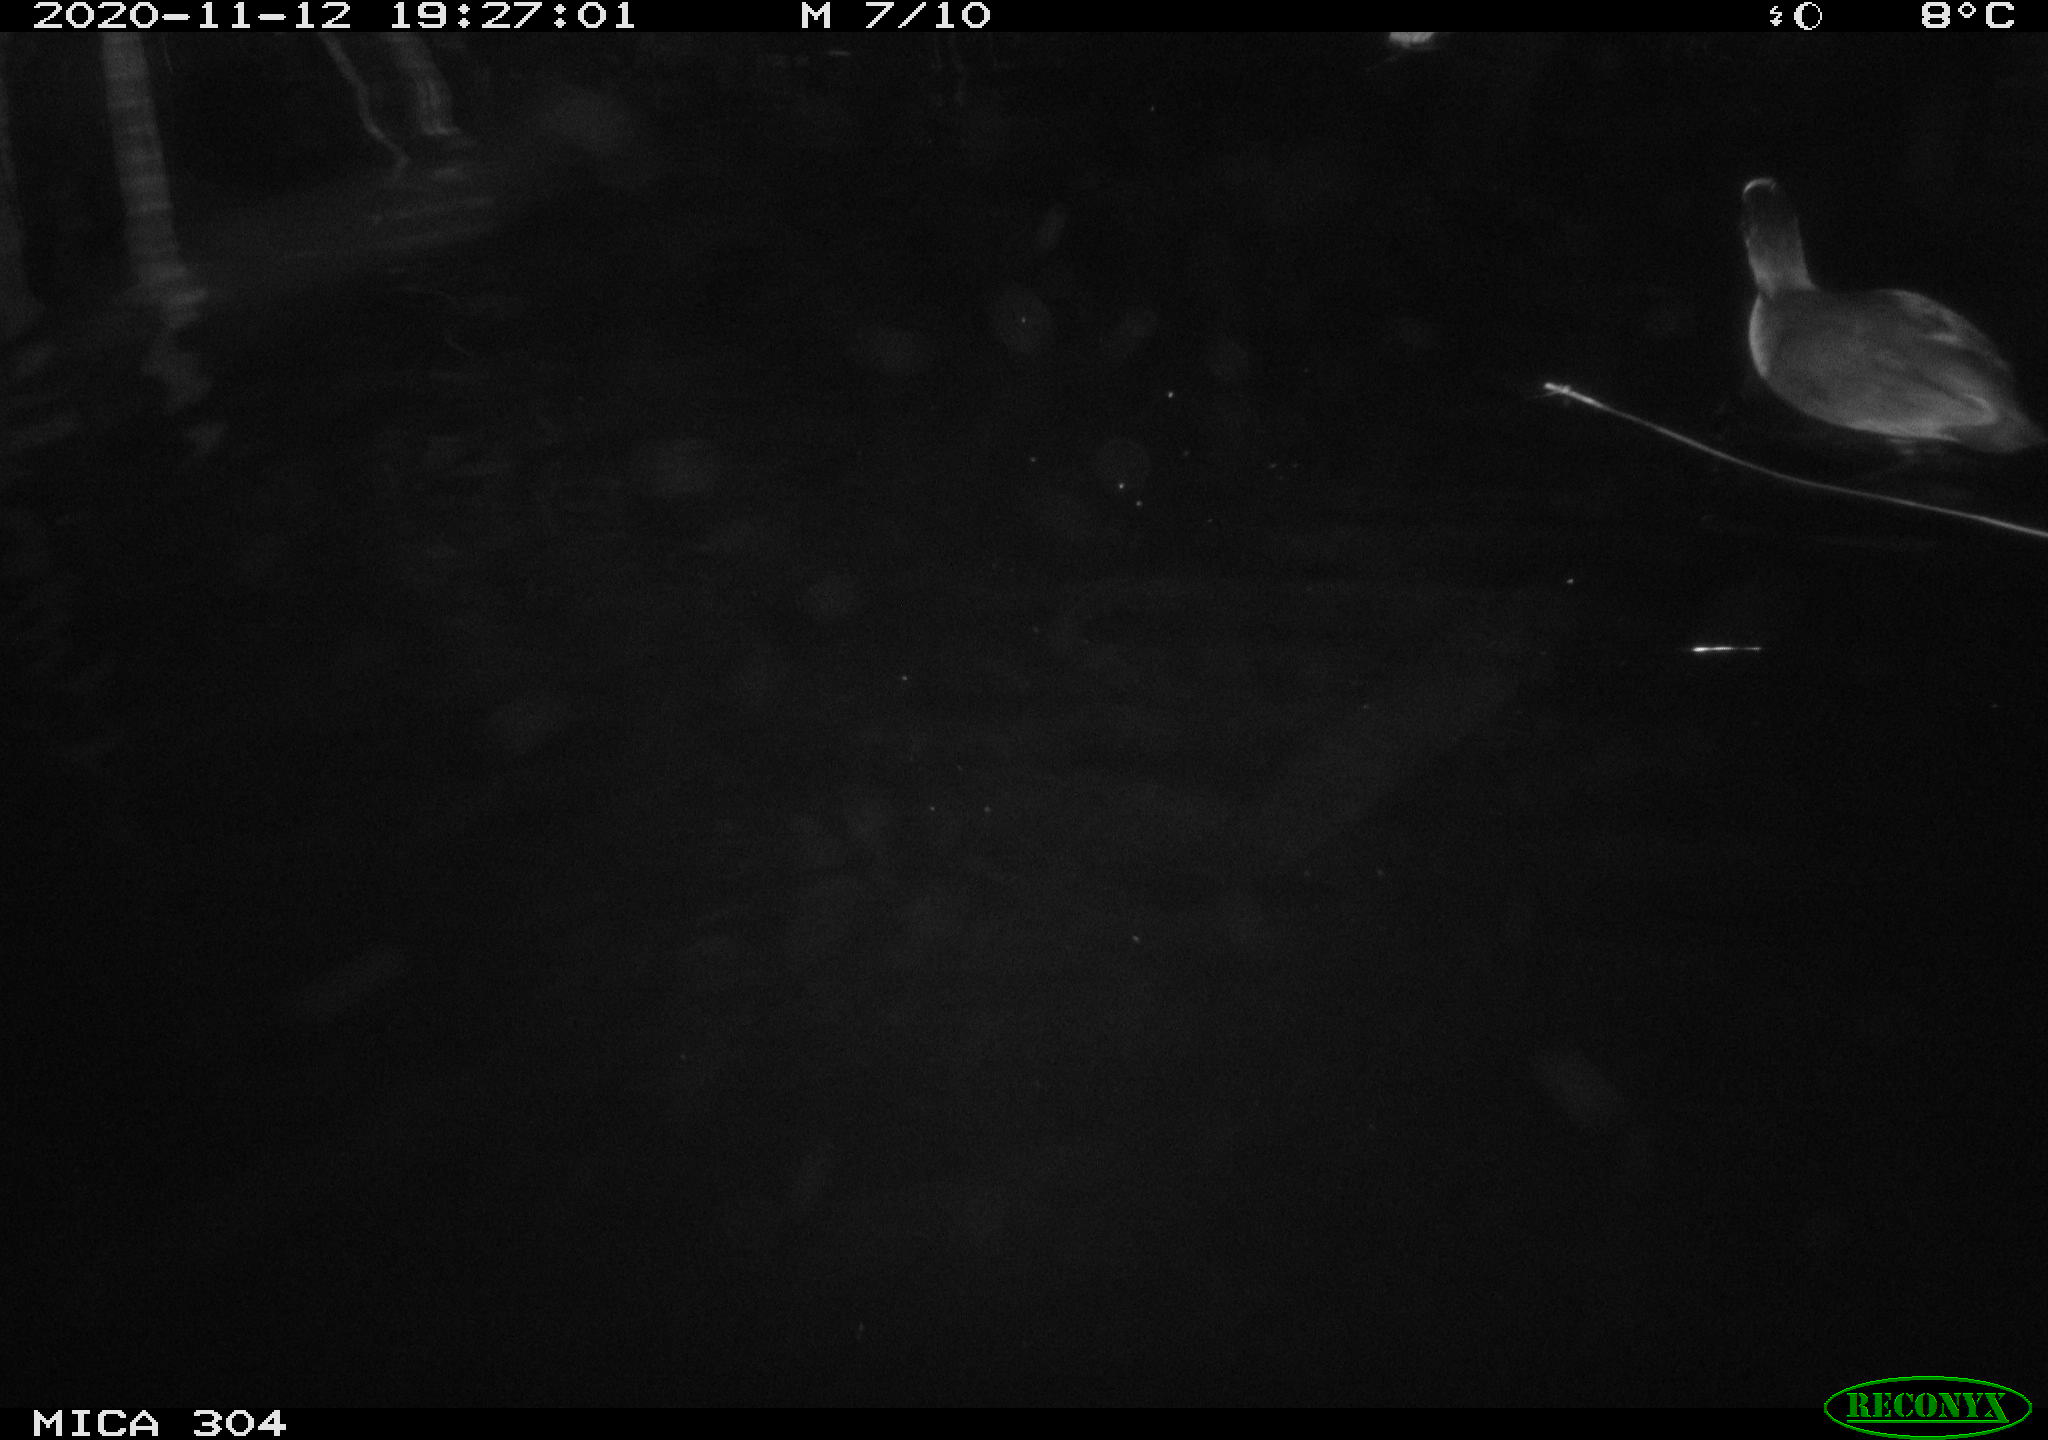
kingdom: Animalia
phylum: Chordata
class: Aves
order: Gruiformes
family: Rallidae
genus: Gallinula
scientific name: Gallinula chloropus
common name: Common moorhen
